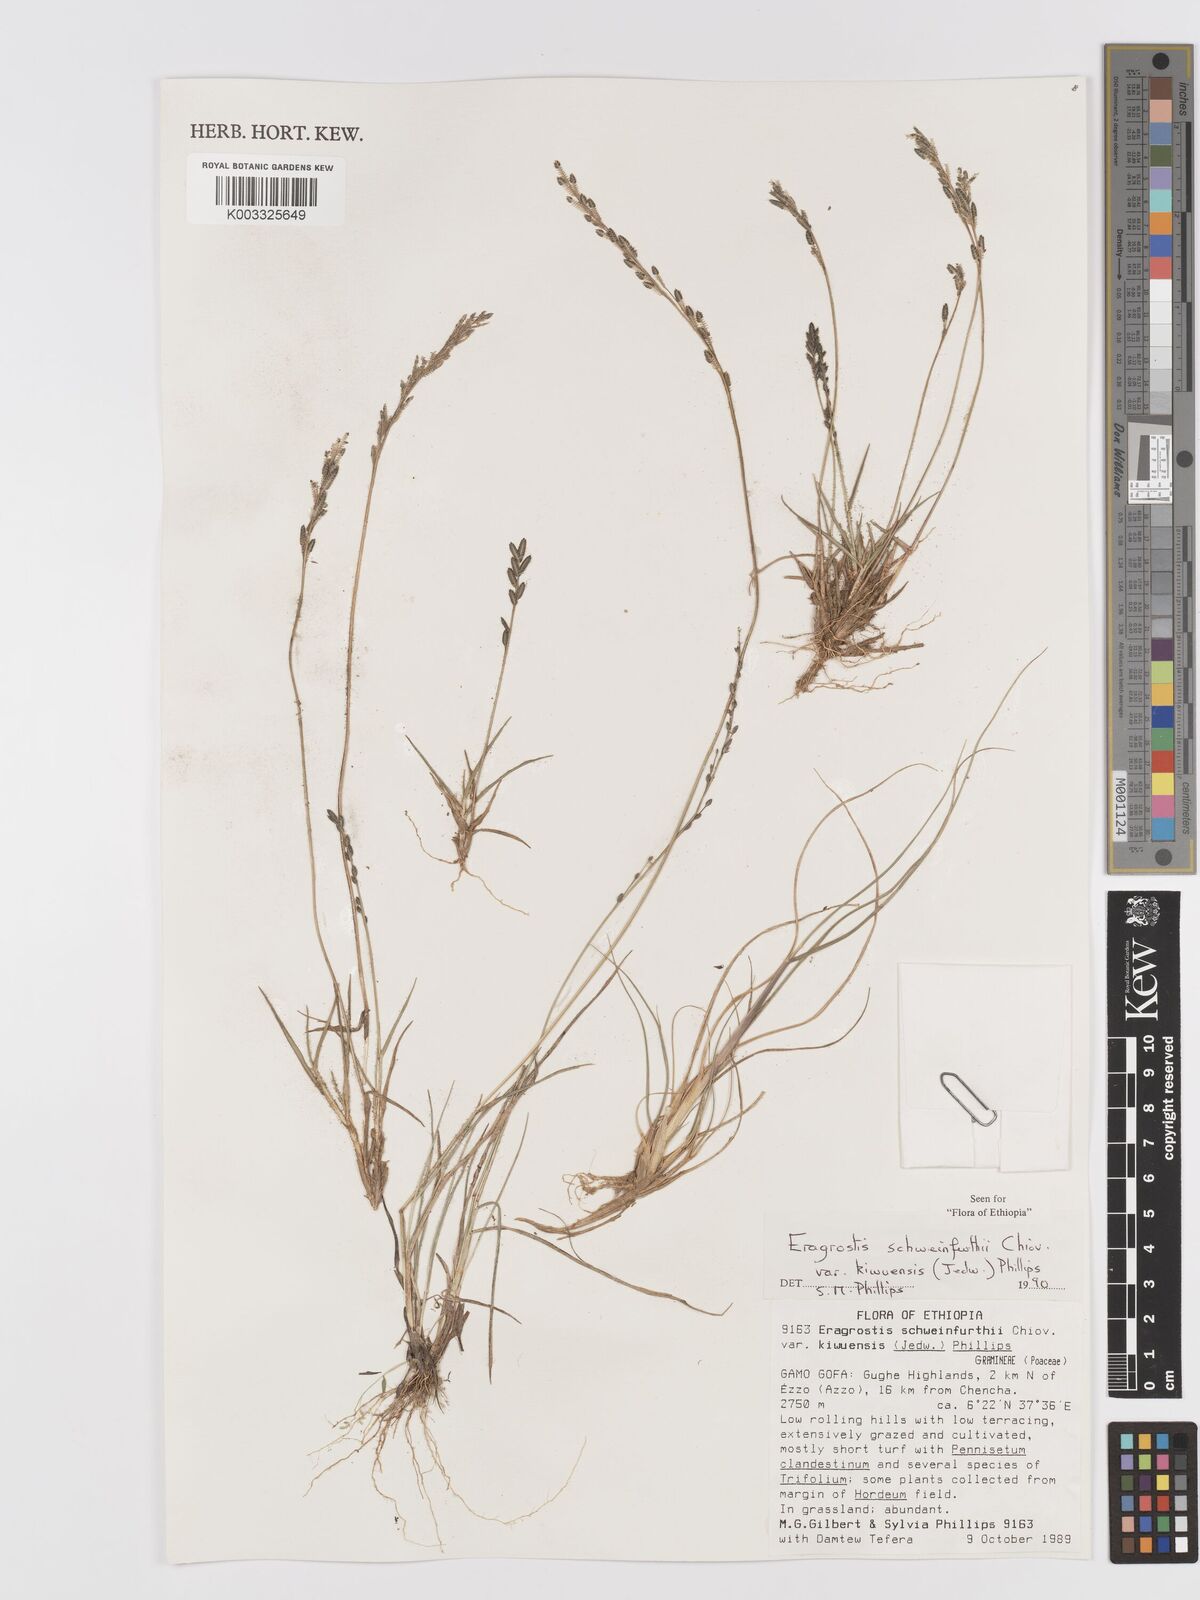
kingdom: Plantae
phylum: Tracheophyta
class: Liliopsida
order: Poales
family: Poaceae
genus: Eragrostis
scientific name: Eragrostis schweinfurthii
